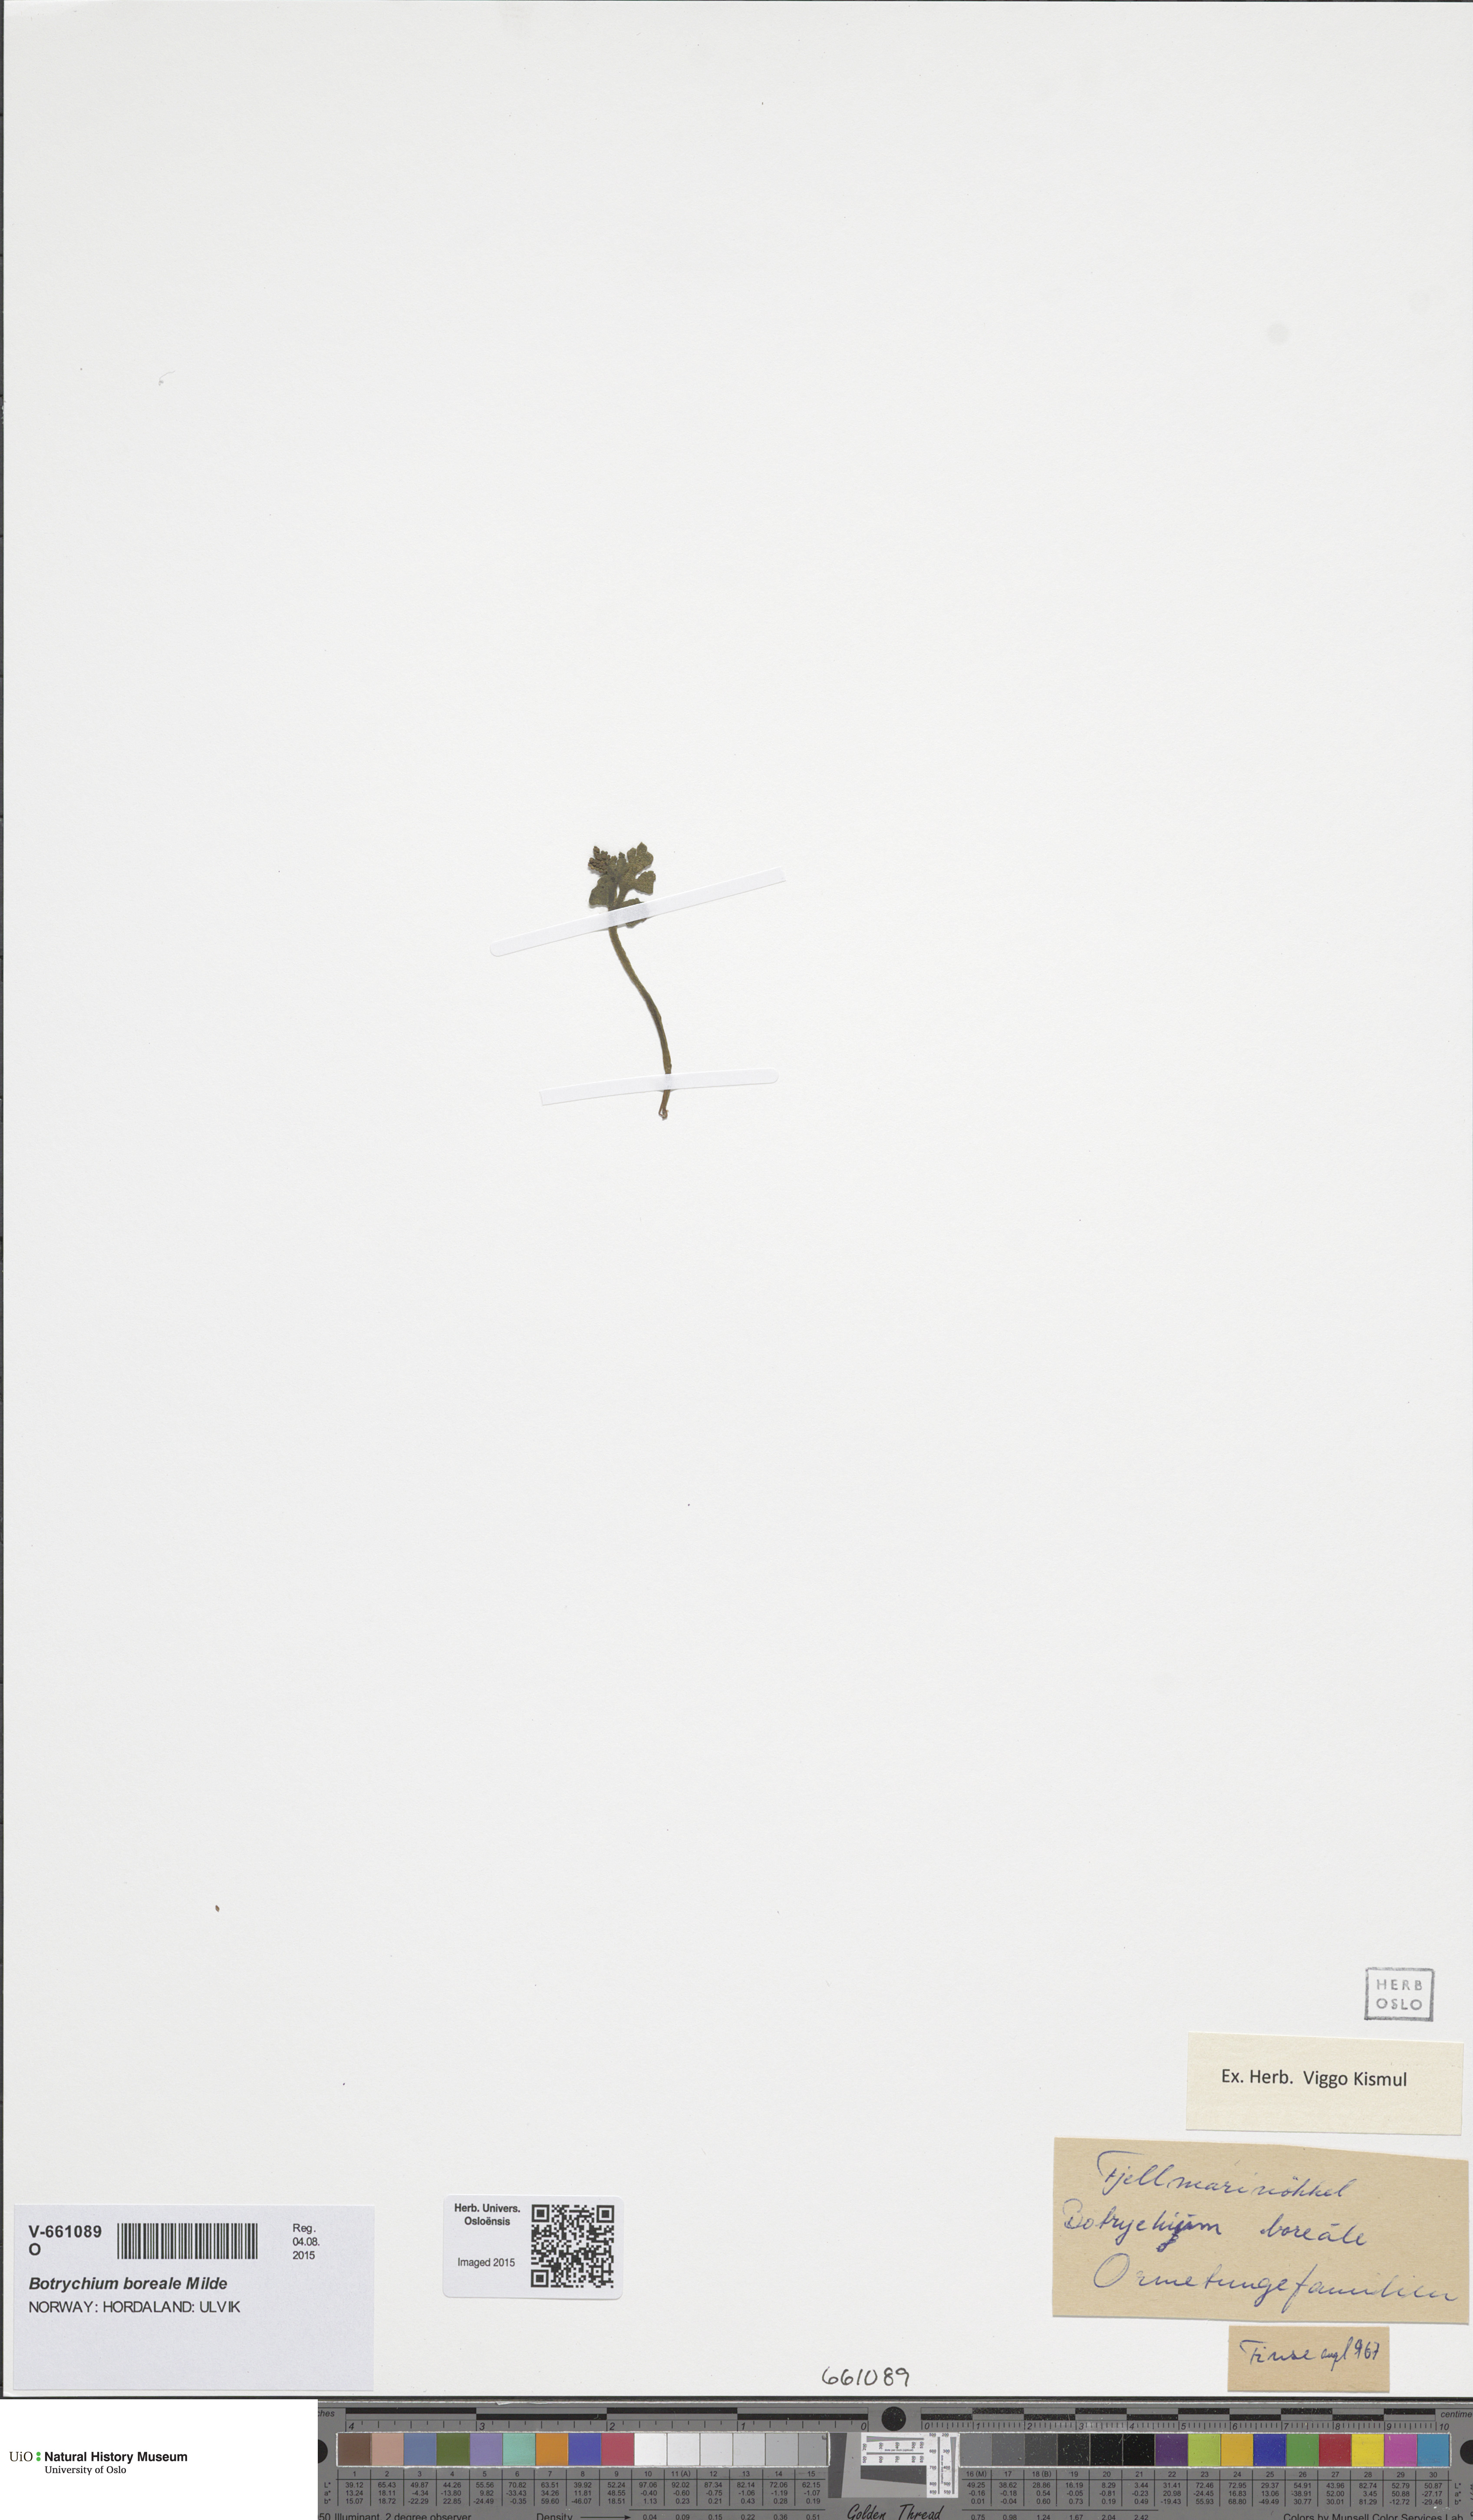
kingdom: Plantae
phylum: Tracheophyta
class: Polypodiopsida
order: Ophioglossales
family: Ophioglossaceae
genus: Botrychium
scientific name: Botrychium boreale
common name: Boreal moonwort
